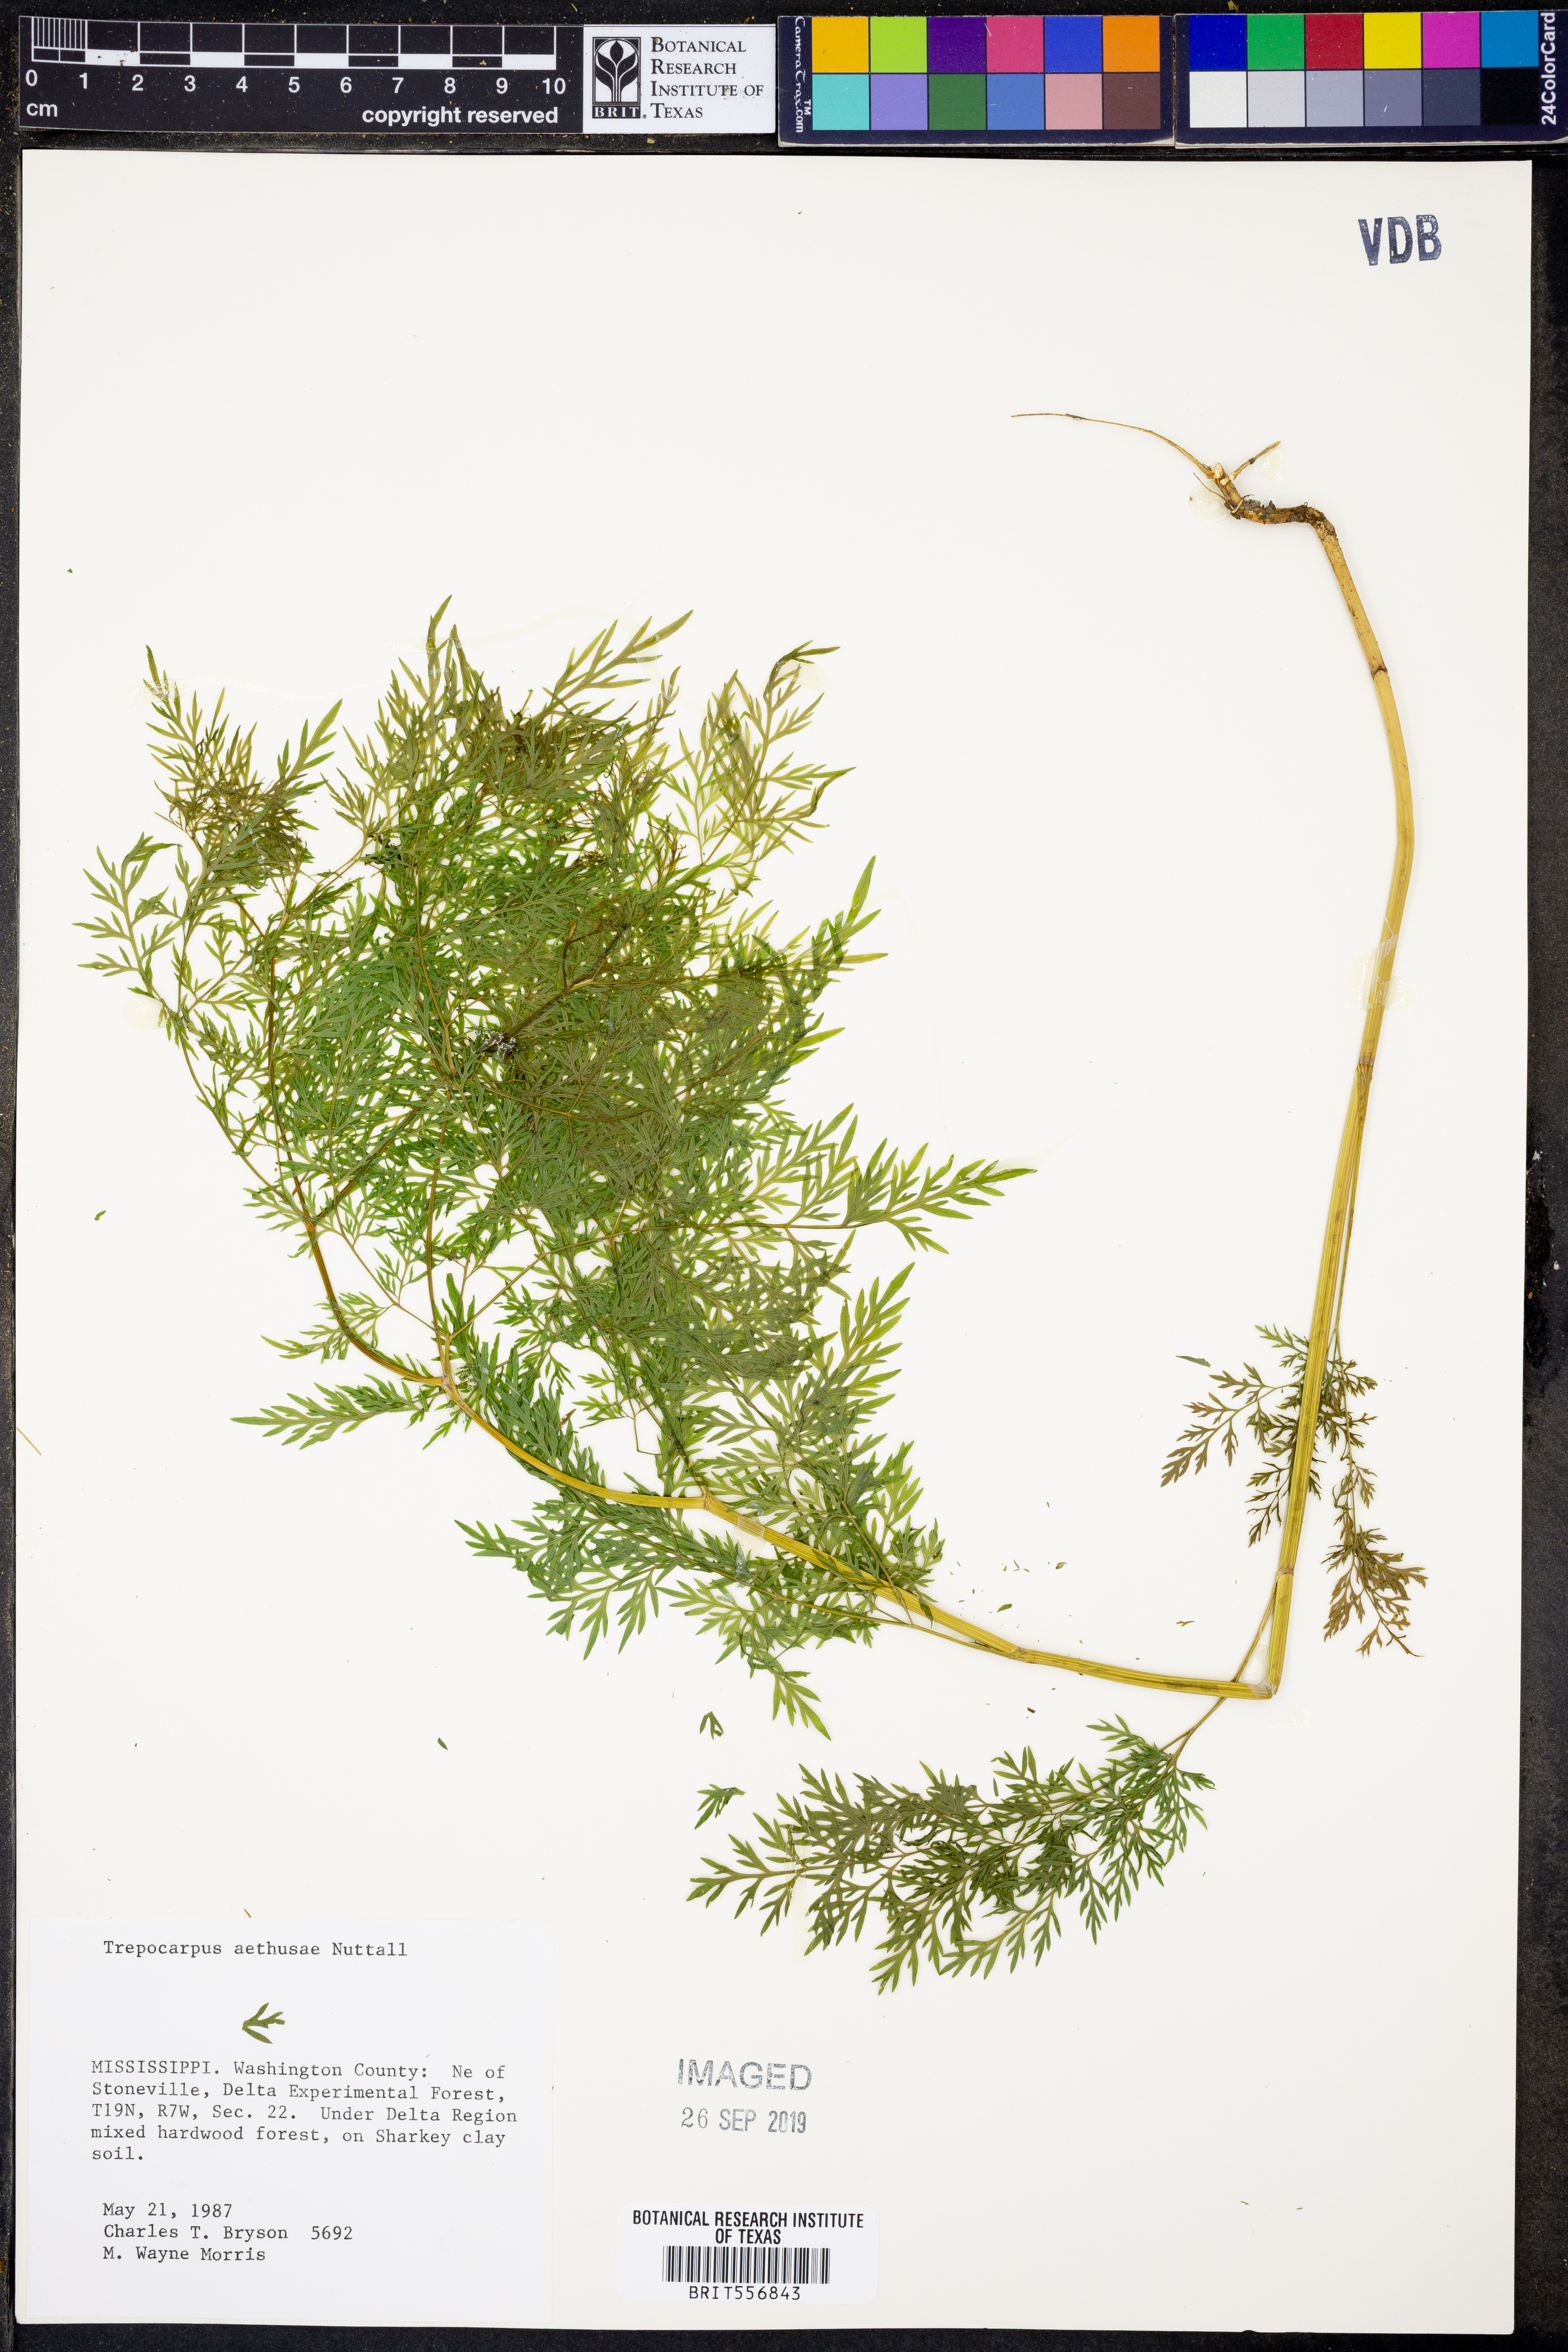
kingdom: Plantae
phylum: Tracheophyta
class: Magnoliopsida
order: Apiales
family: Apiaceae
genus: Trepocarpus
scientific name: Trepocarpus aethusae
